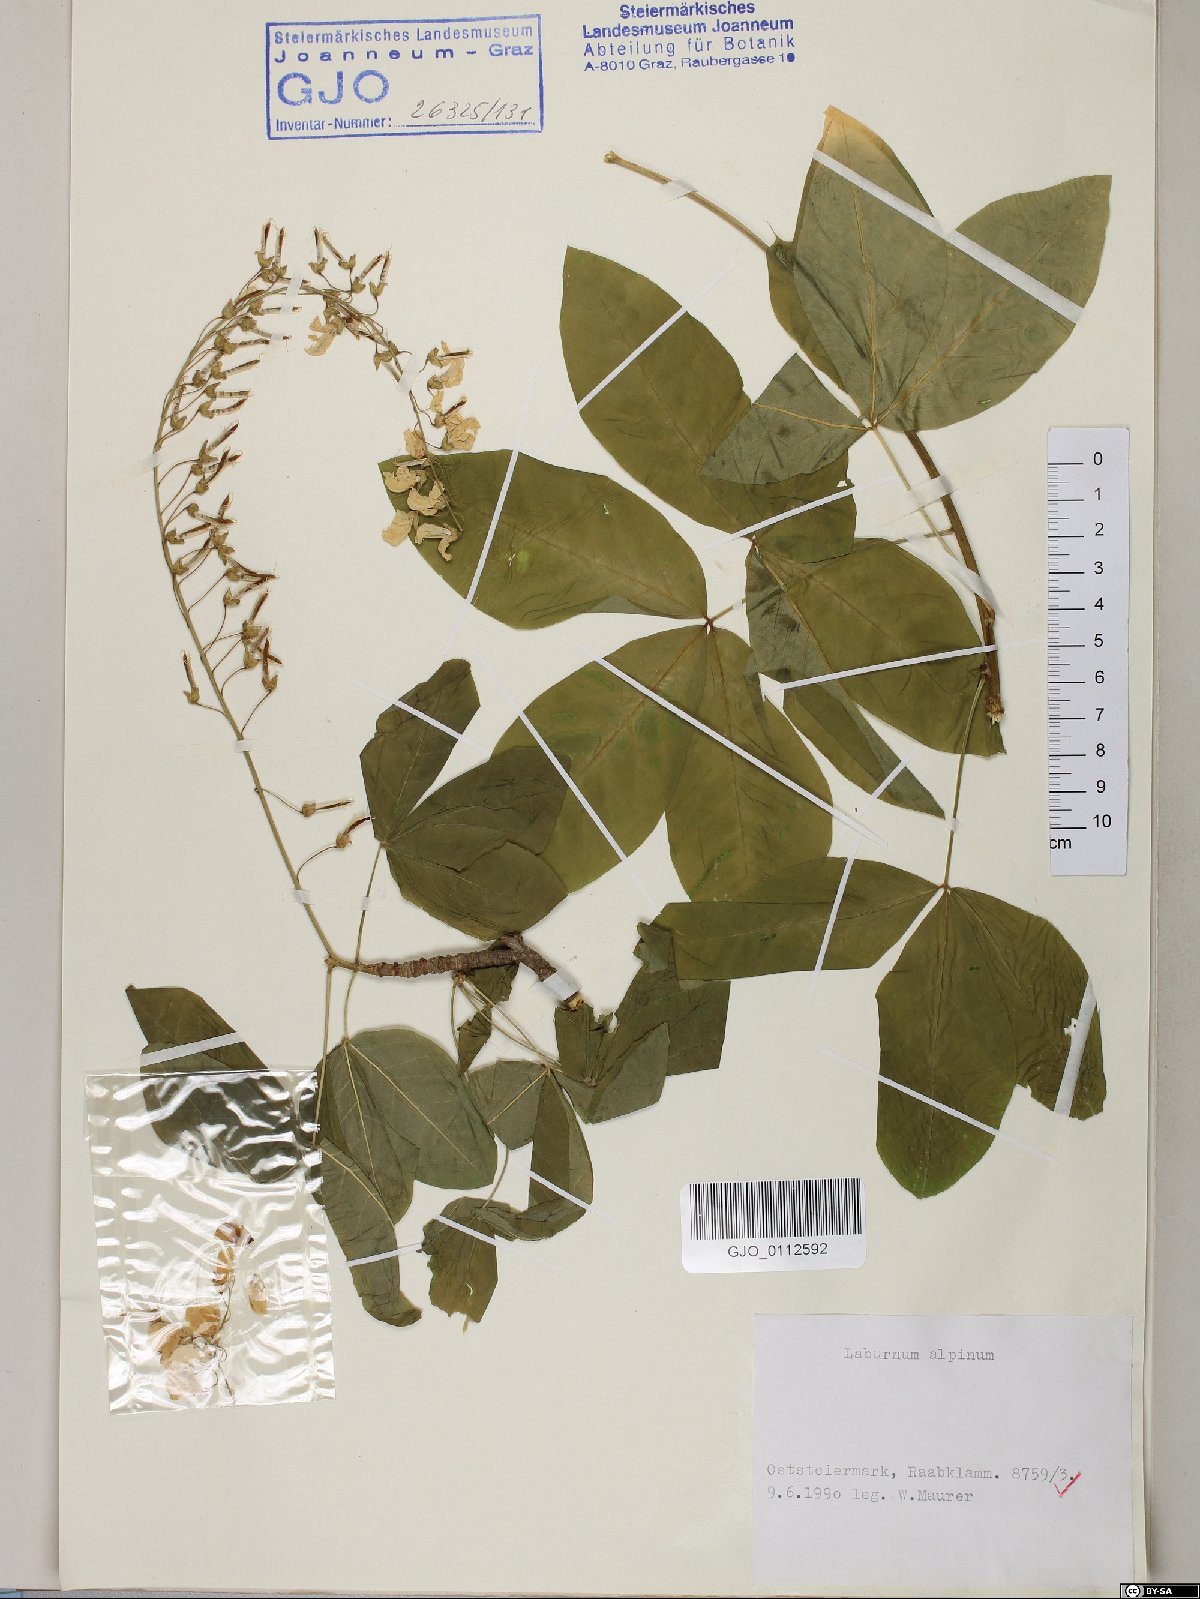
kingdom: Plantae
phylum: Tracheophyta
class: Magnoliopsida
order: Fabales
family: Fabaceae
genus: Laburnum
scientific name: Laburnum alpinum
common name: Scottish laburnum
